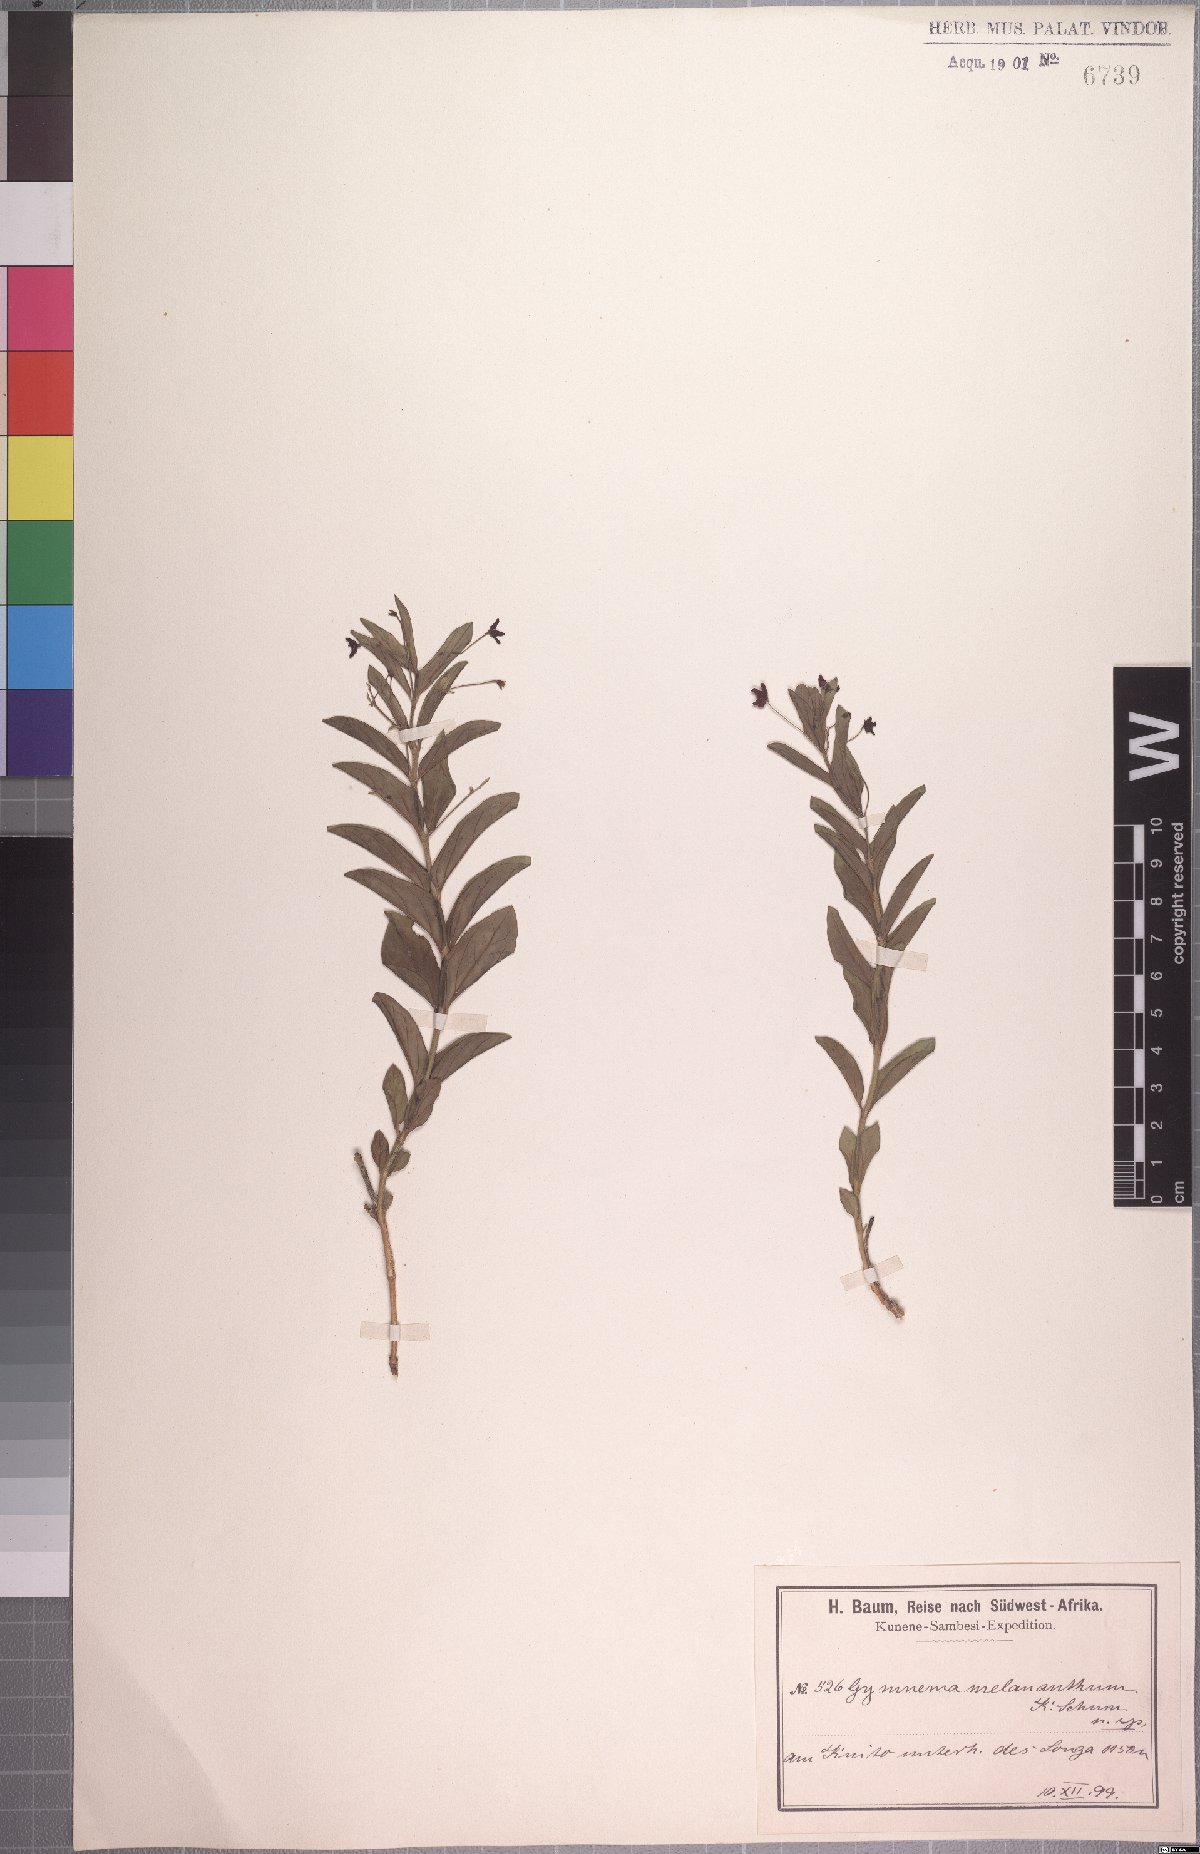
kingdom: Plantae
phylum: Tracheophyta
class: Magnoliopsida
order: Gentianales
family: Apocynaceae
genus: Vincetoxicum
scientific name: Vincetoxicum caffrum
